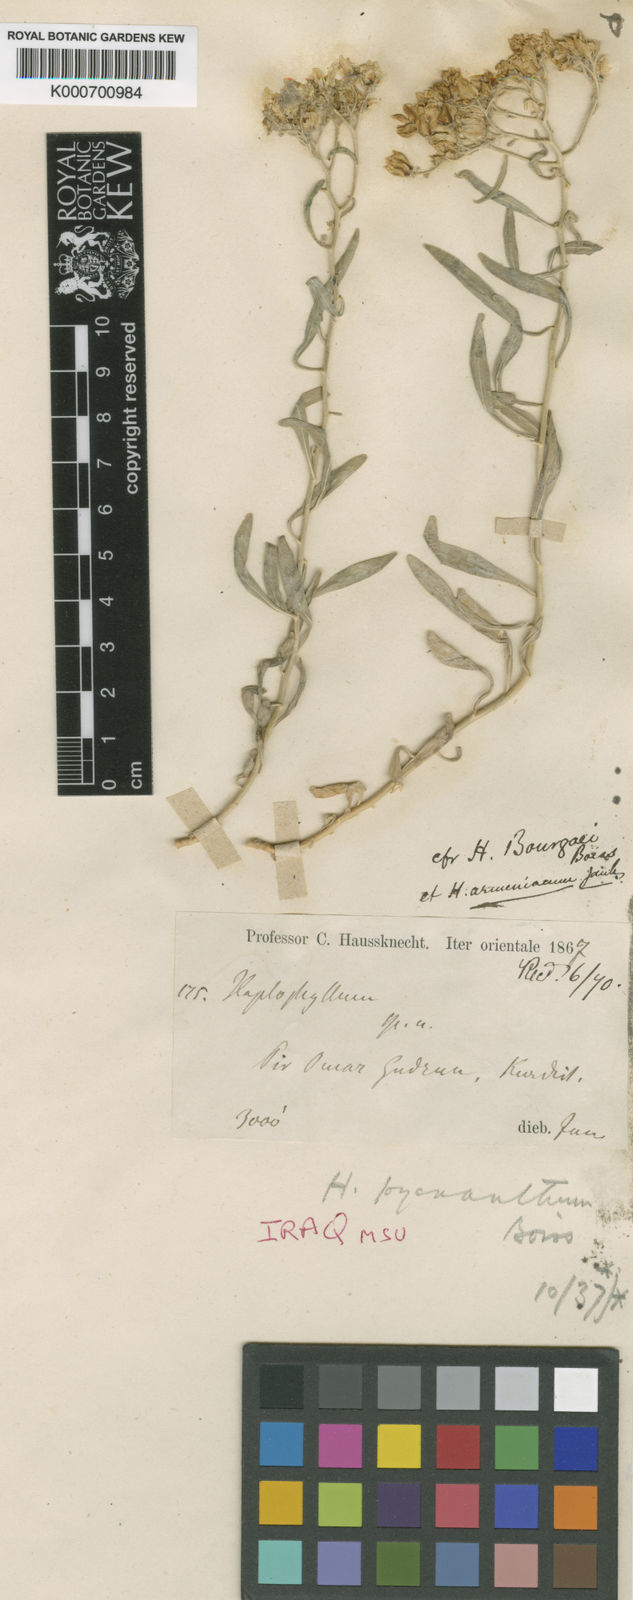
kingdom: Plantae
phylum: Tracheophyta
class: Magnoliopsida
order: Sapindales
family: Rutaceae
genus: Haplophyllum
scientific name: Haplophyllum buxbaumii
